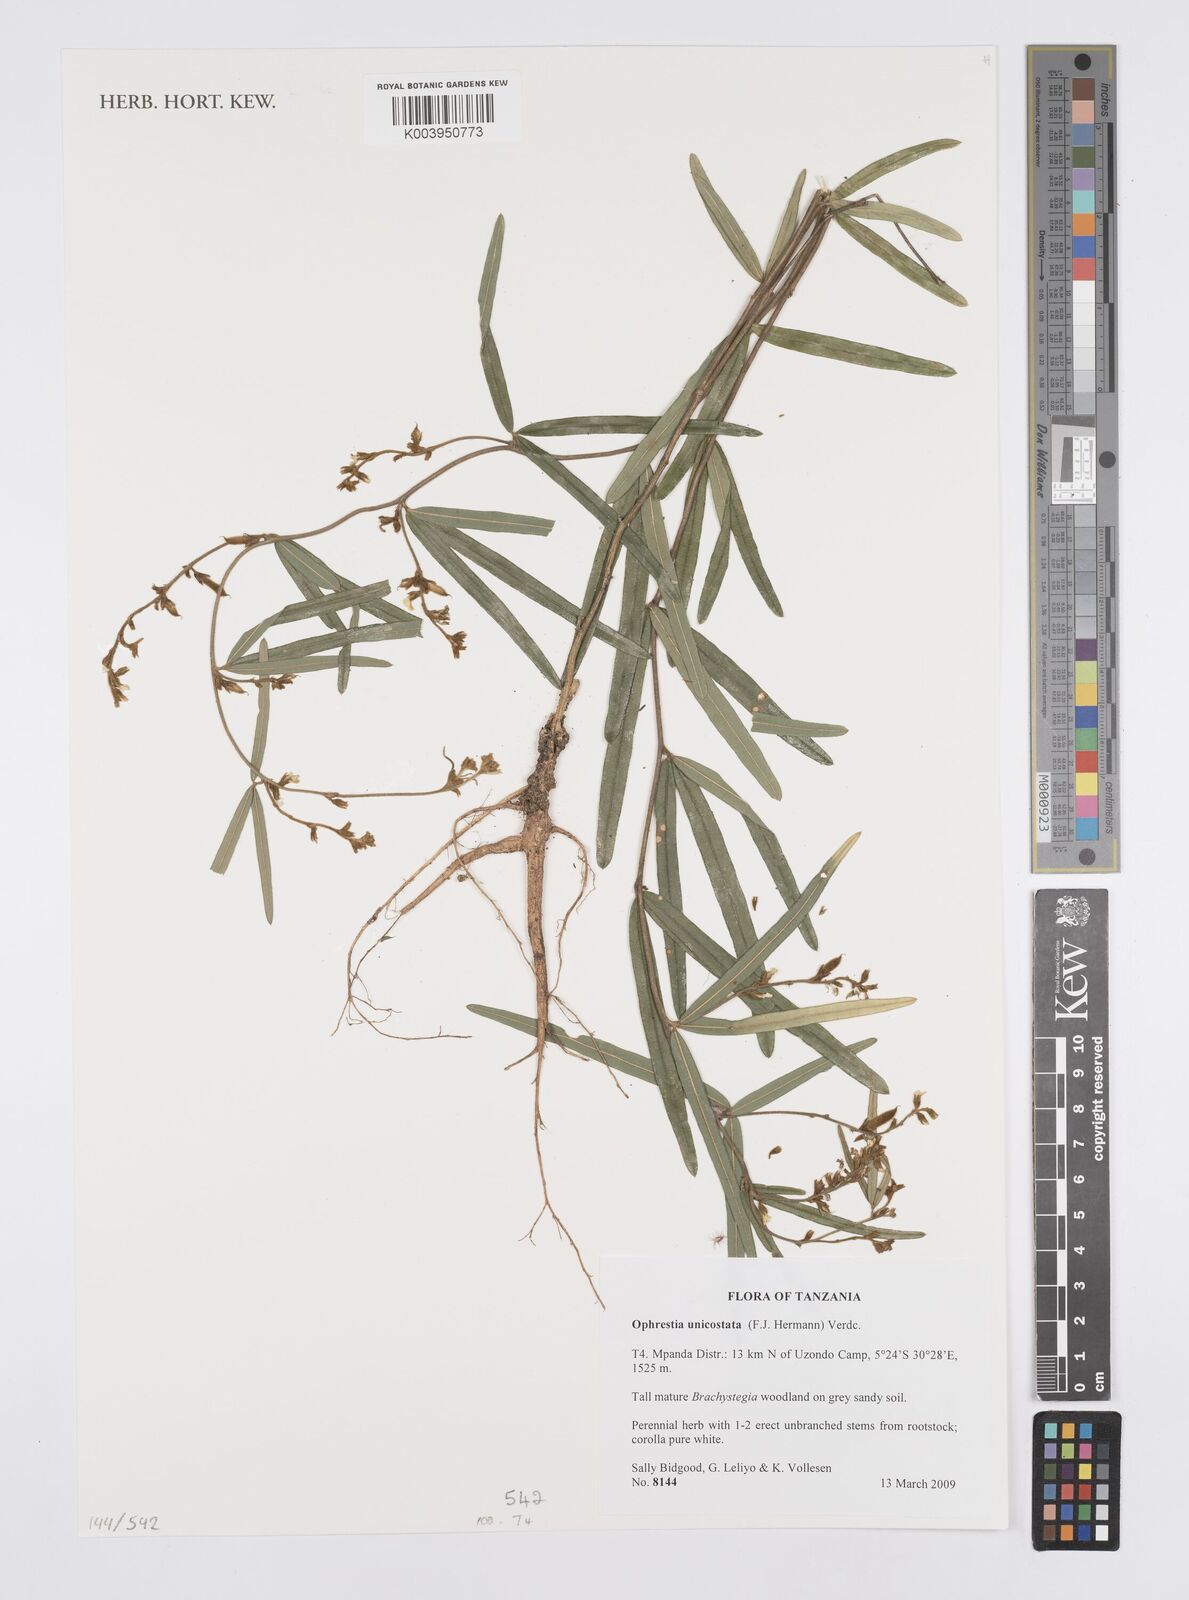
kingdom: Plantae
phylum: Tracheophyta
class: Magnoliopsida
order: Fabales
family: Fabaceae
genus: Ophrestia
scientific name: Ophrestia unicostata
